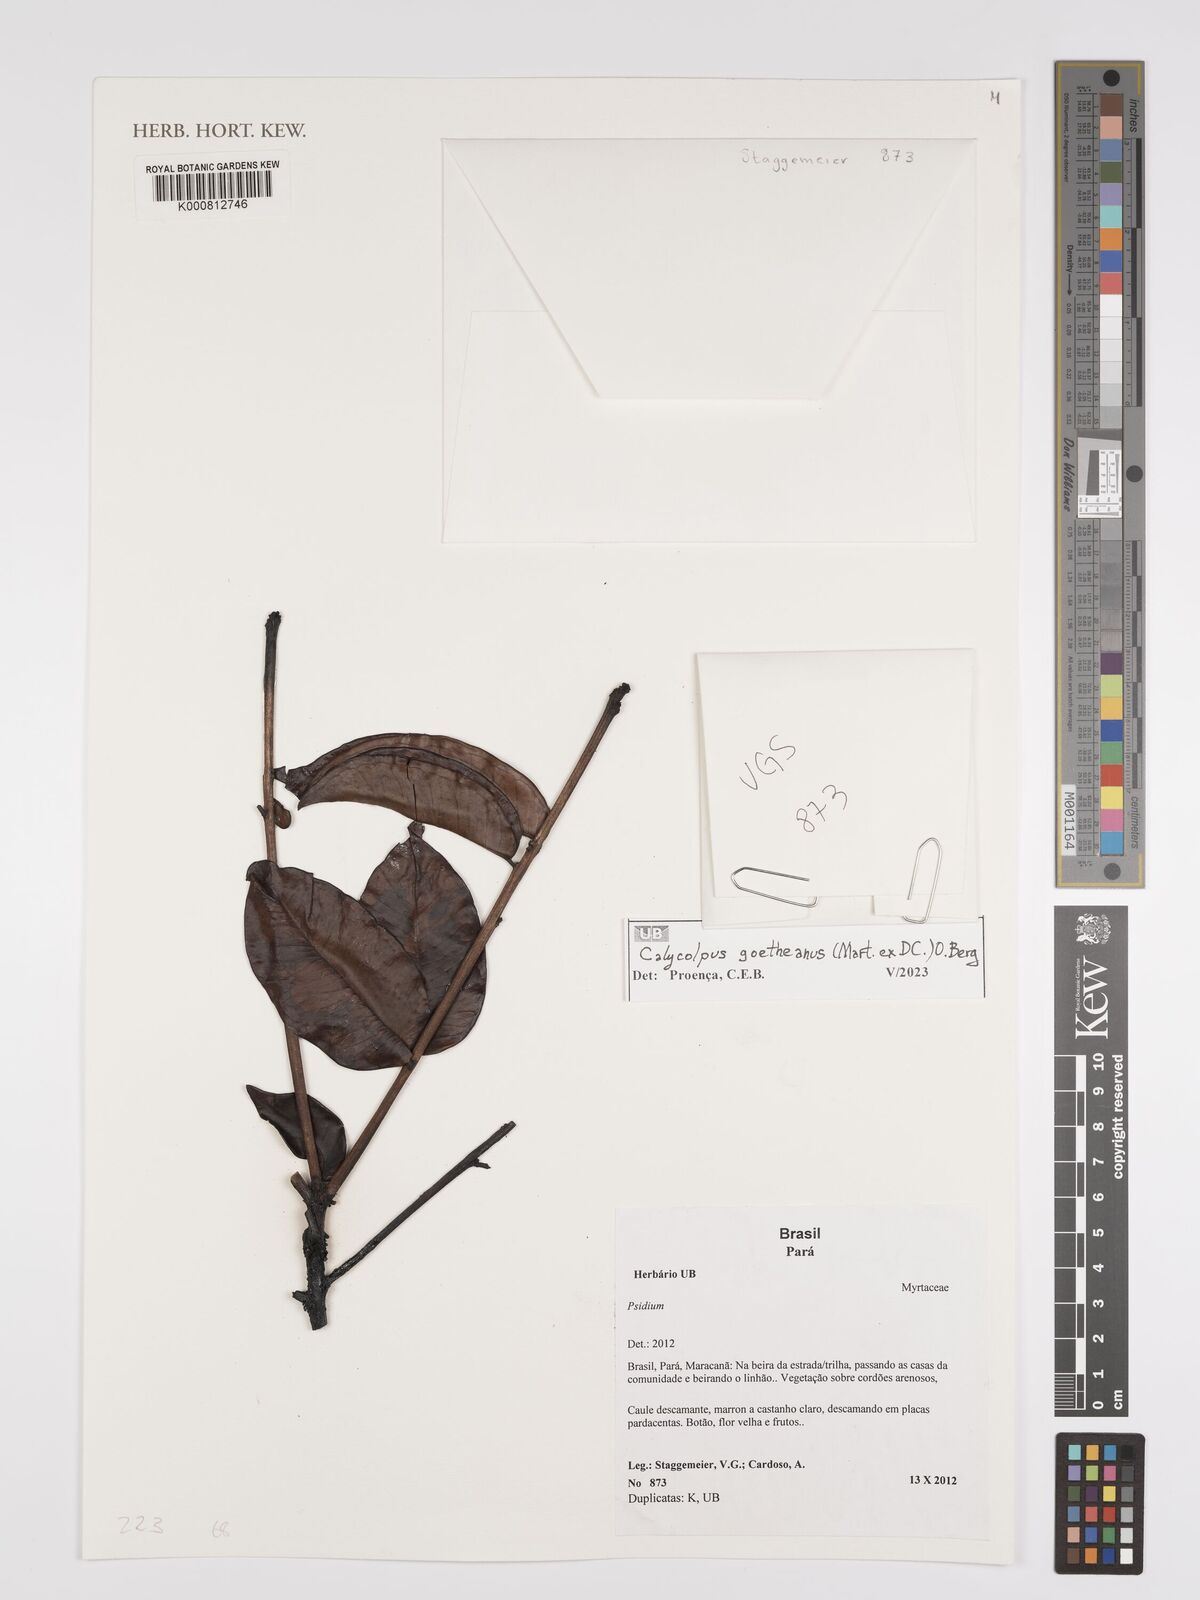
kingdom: Plantae
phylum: Tracheophyta
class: Magnoliopsida
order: Myrtales
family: Myrtaceae
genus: Psidium
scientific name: Psidium
